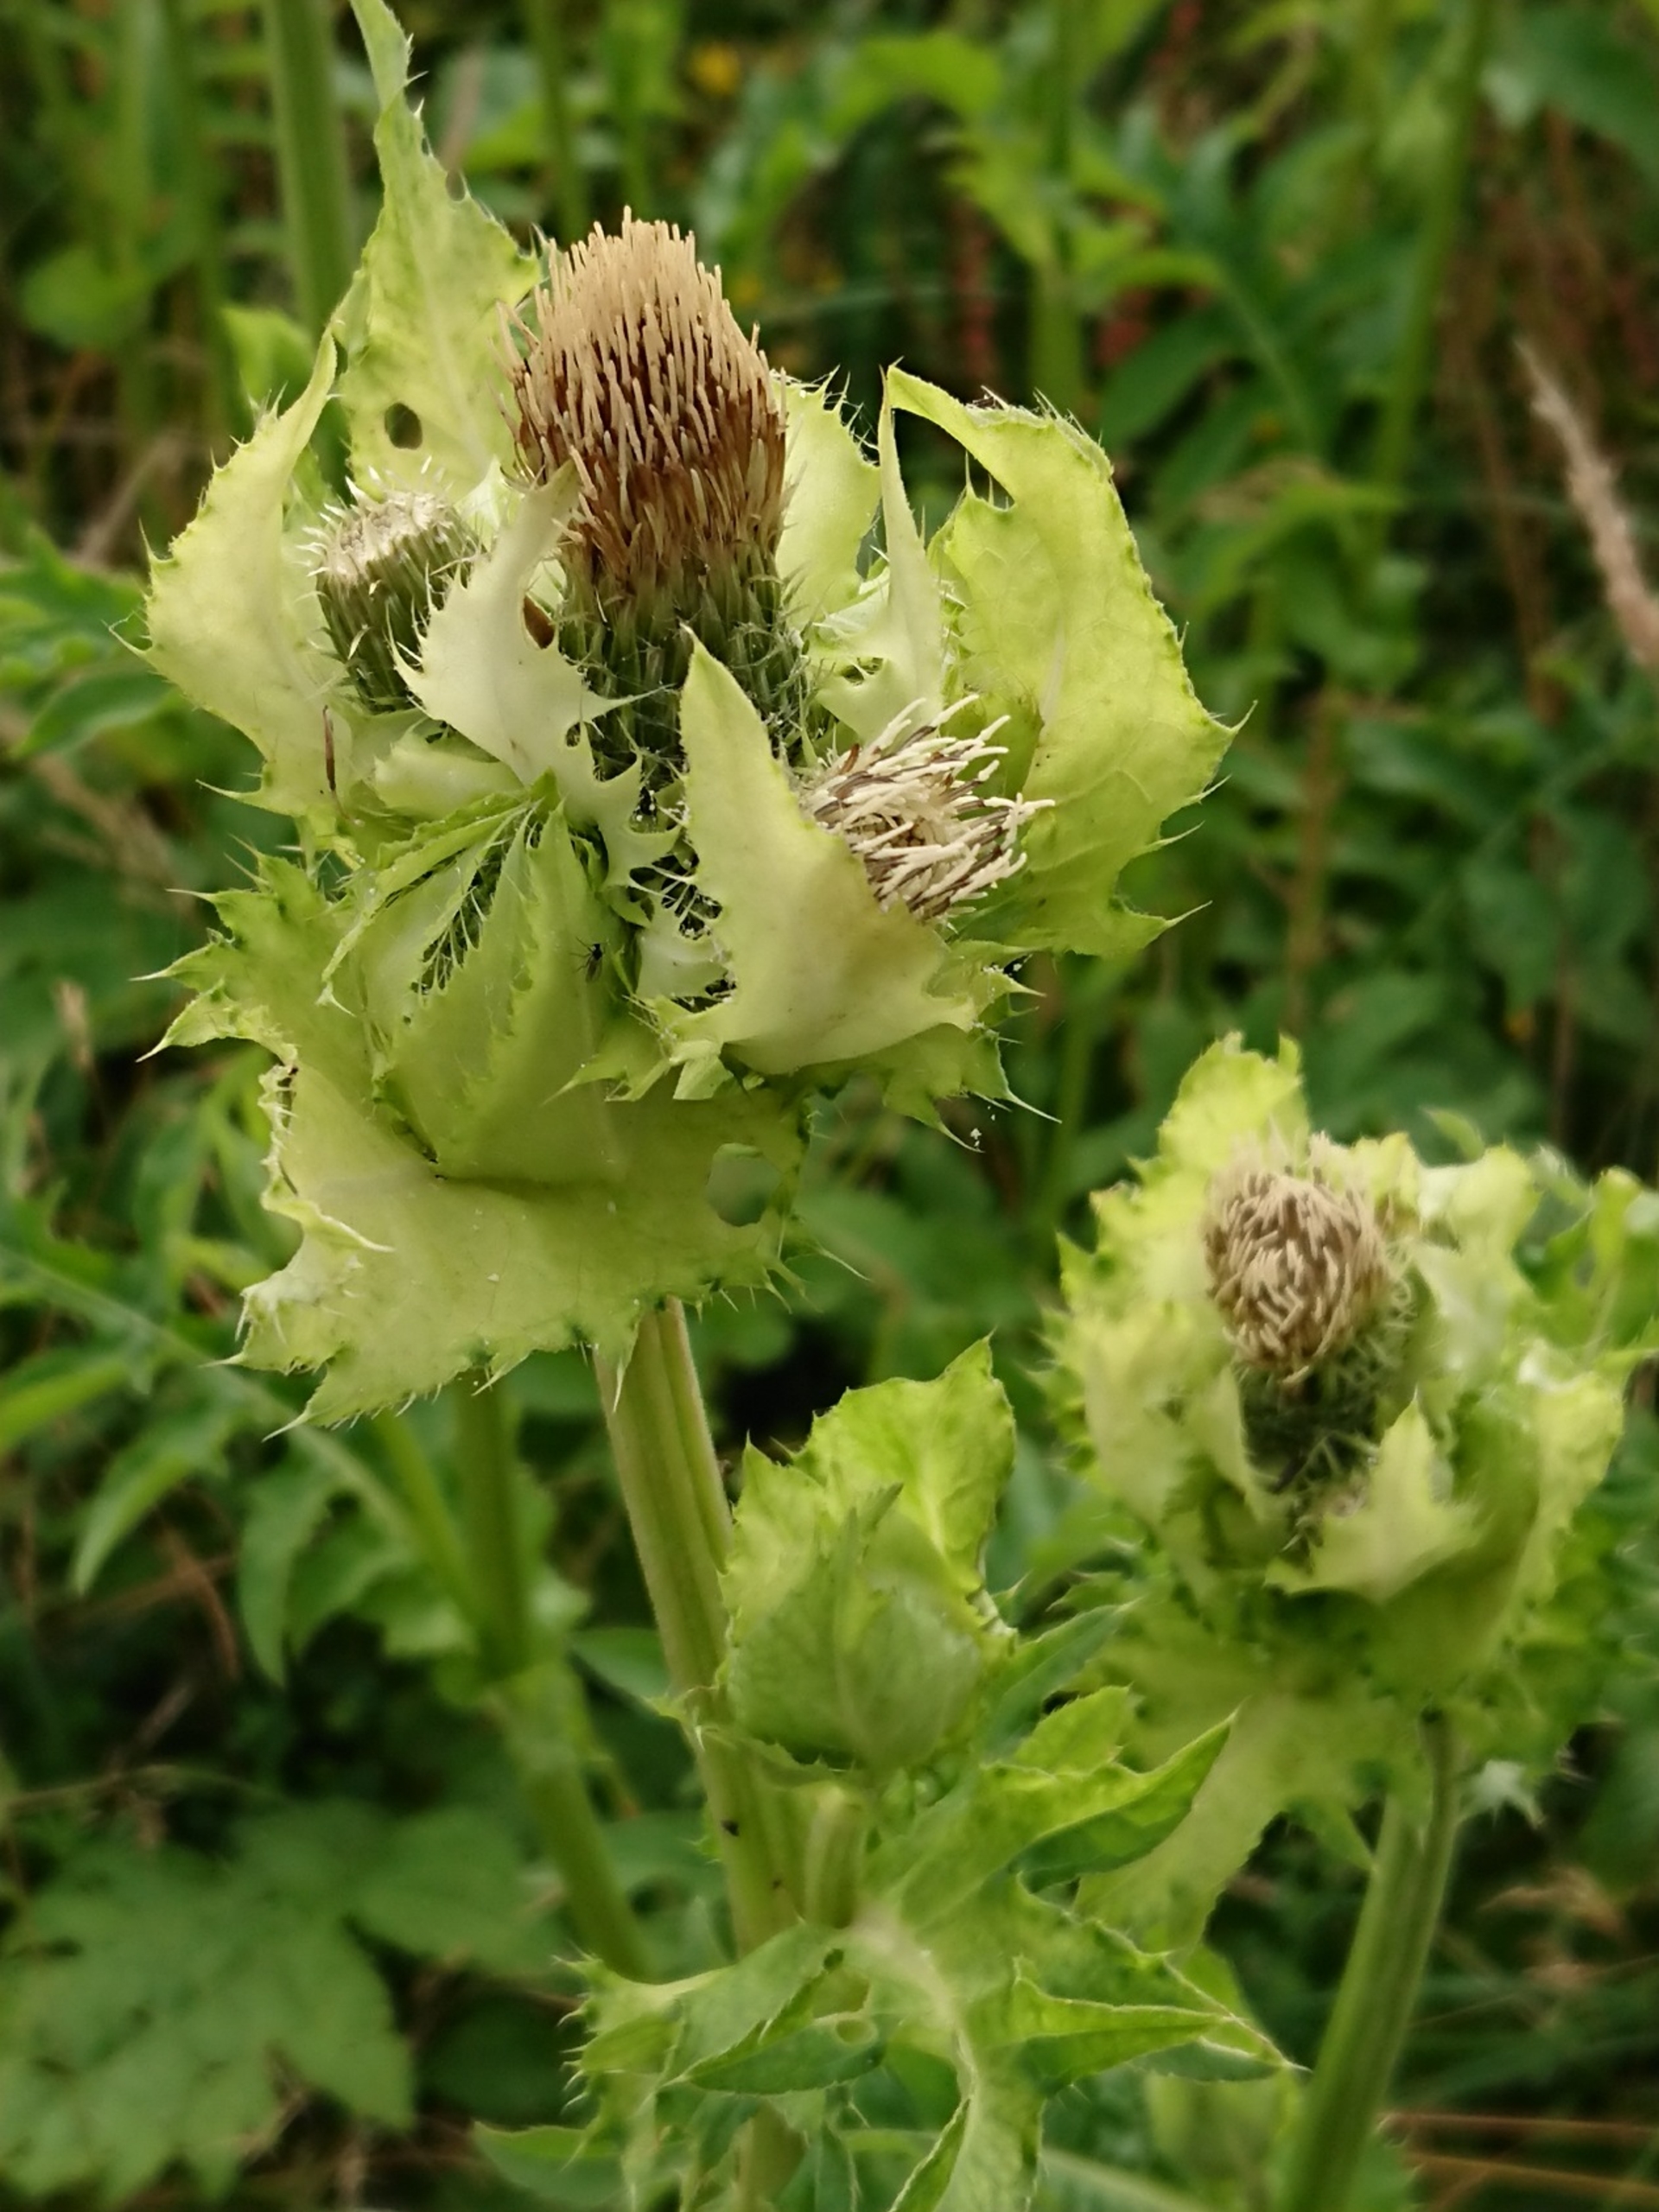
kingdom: Plantae
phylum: Tracheophyta
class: Magnoliopsida
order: Asterales
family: Asteraceae
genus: Cirsium
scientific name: Cirsium oleraceum
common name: Kål-tidsel
